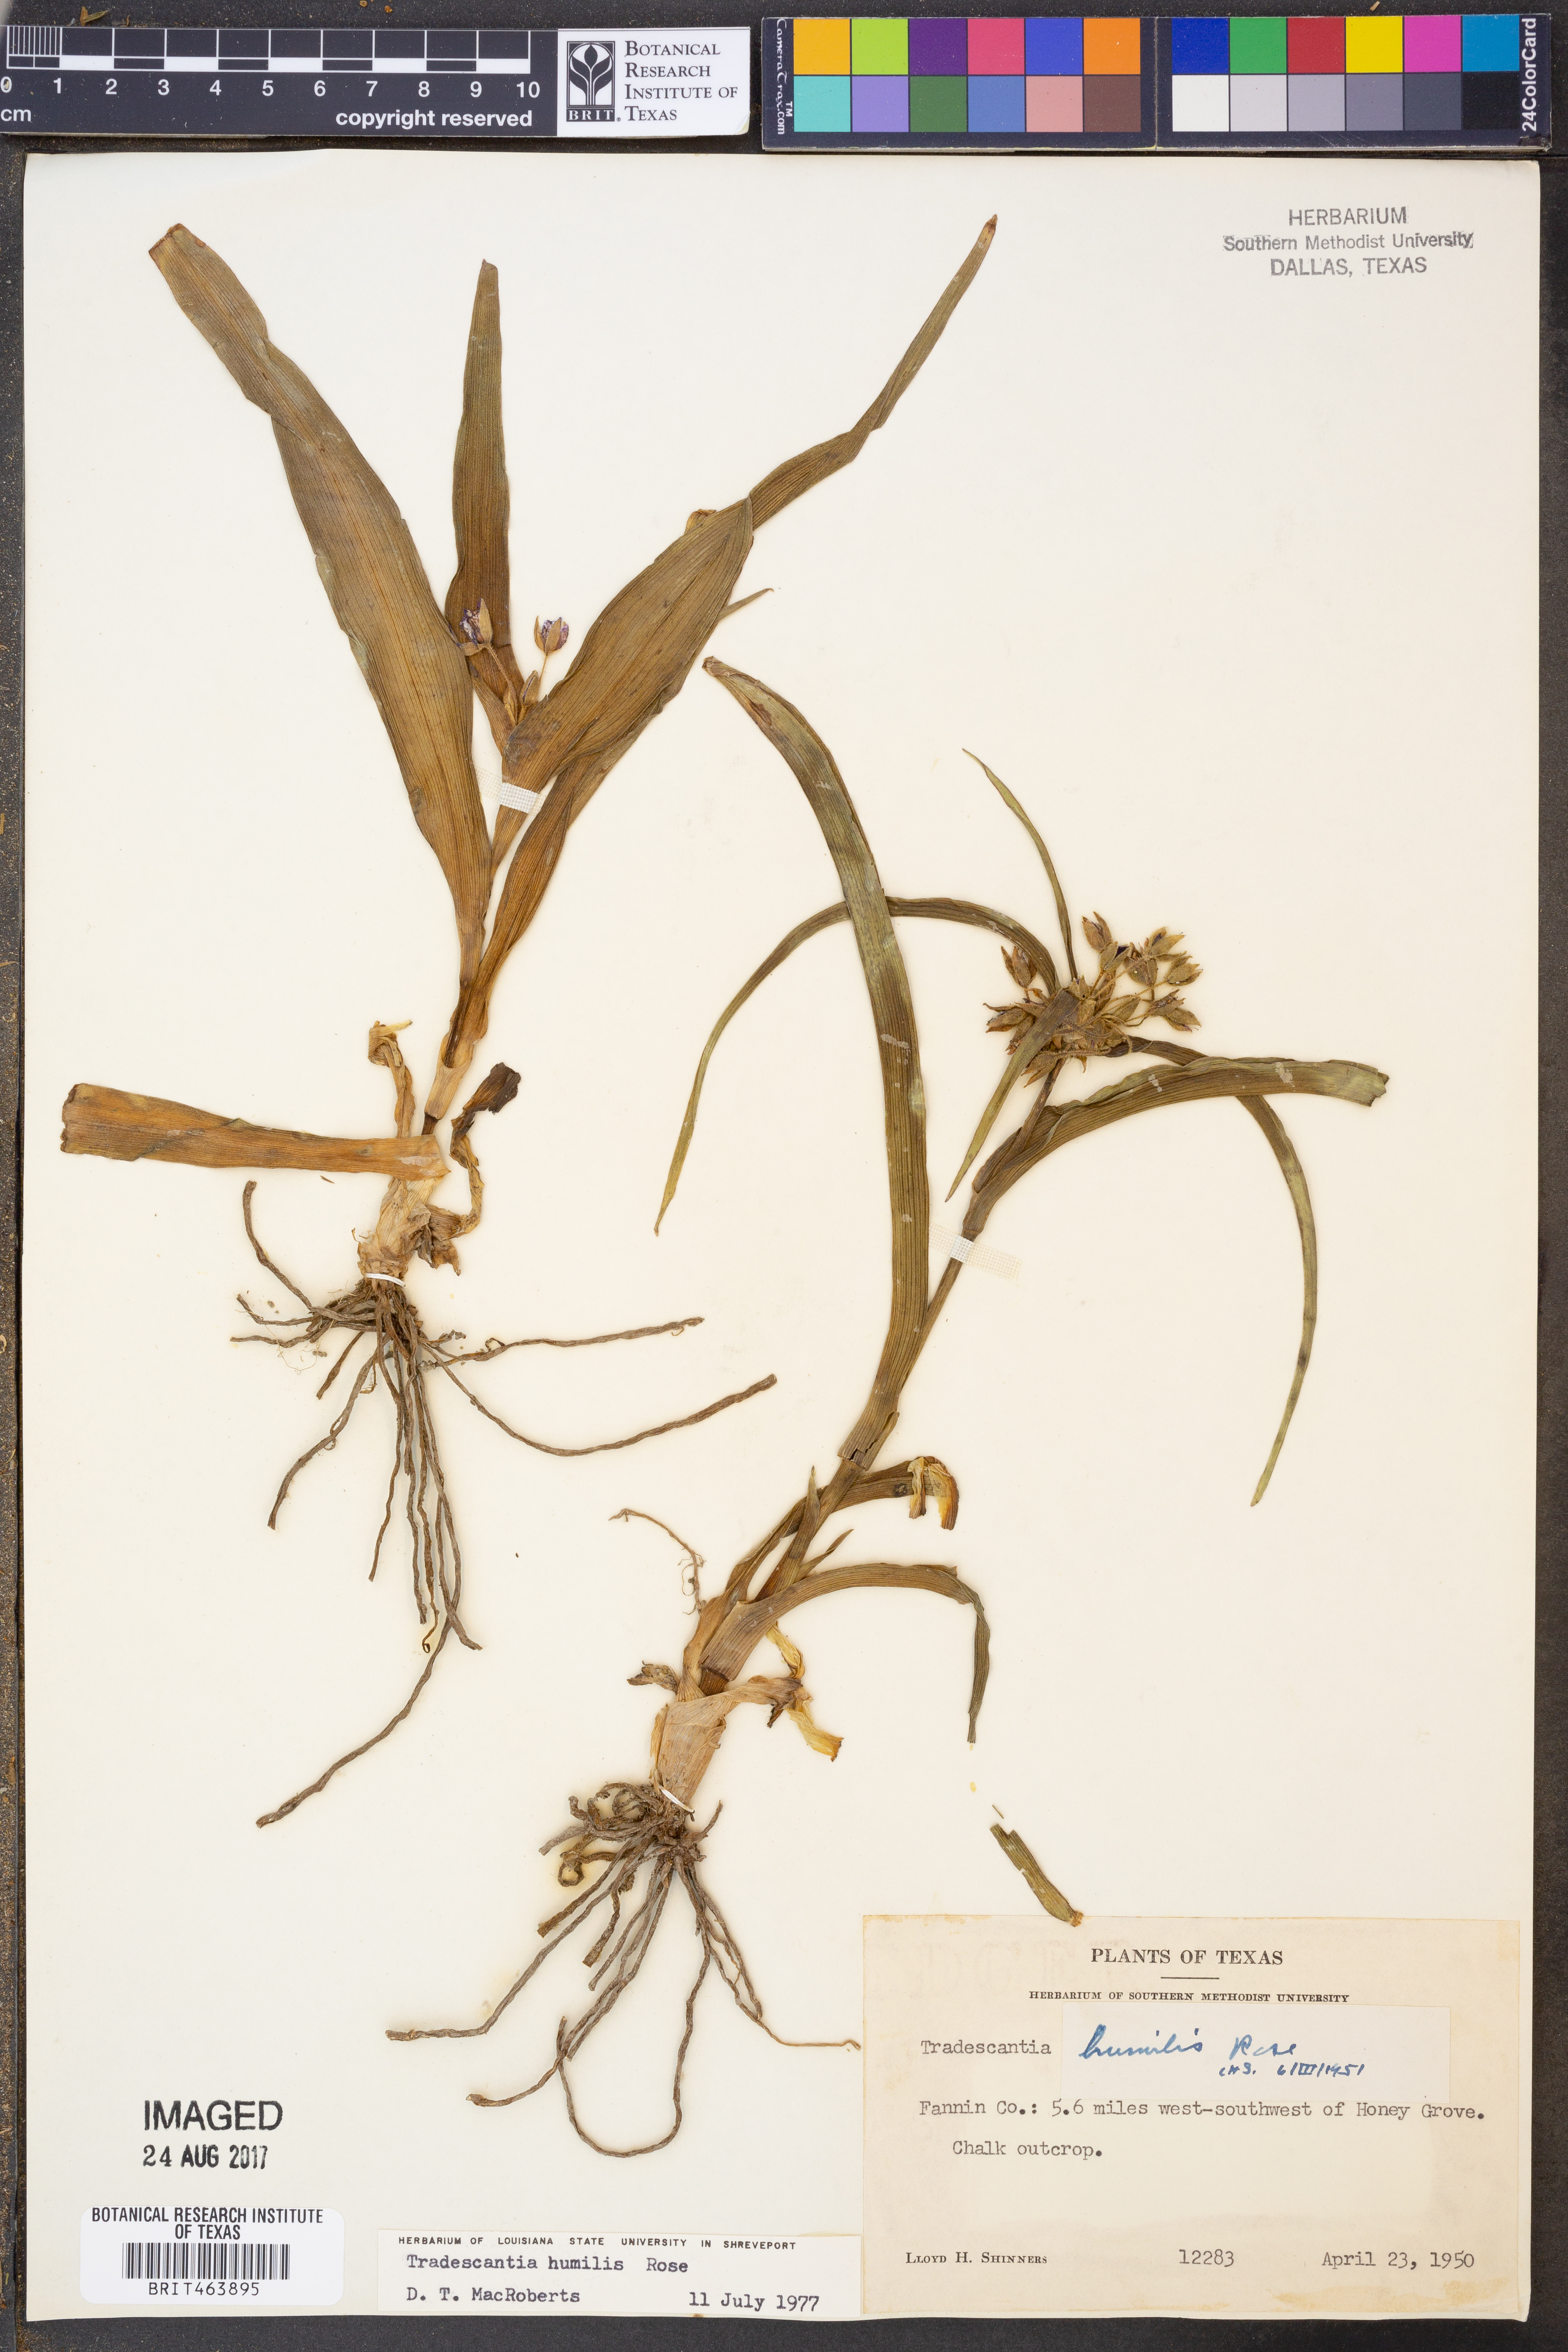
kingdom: Plantae
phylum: Tracheophyta
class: Liliopsida
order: Commelinales
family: Commelinaceae
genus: Tradescantia
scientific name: Tradescantia humilis
